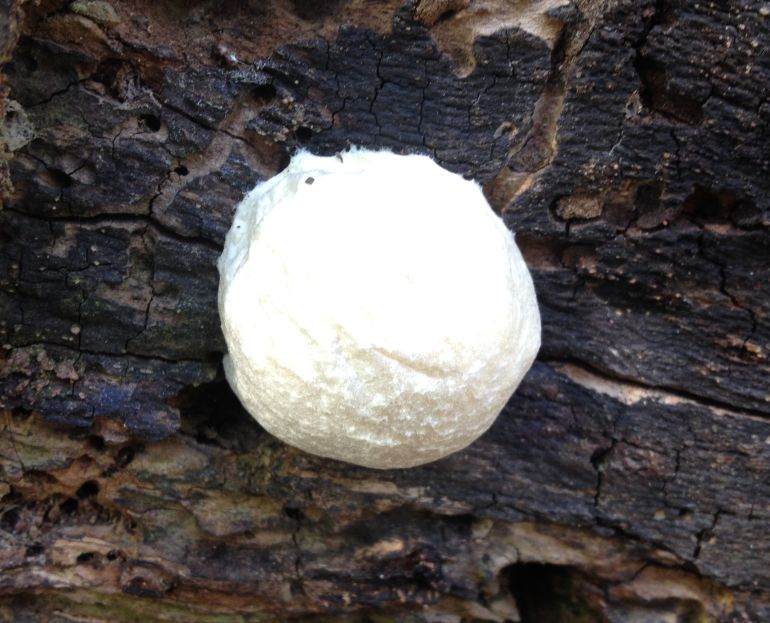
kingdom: Protozoa
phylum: Mycetozoa
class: Myxomycetes
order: Cribrariales
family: Tubiferaceae
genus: Reticularia
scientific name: Reticularia lycoperdon
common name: skinnende støvpude
